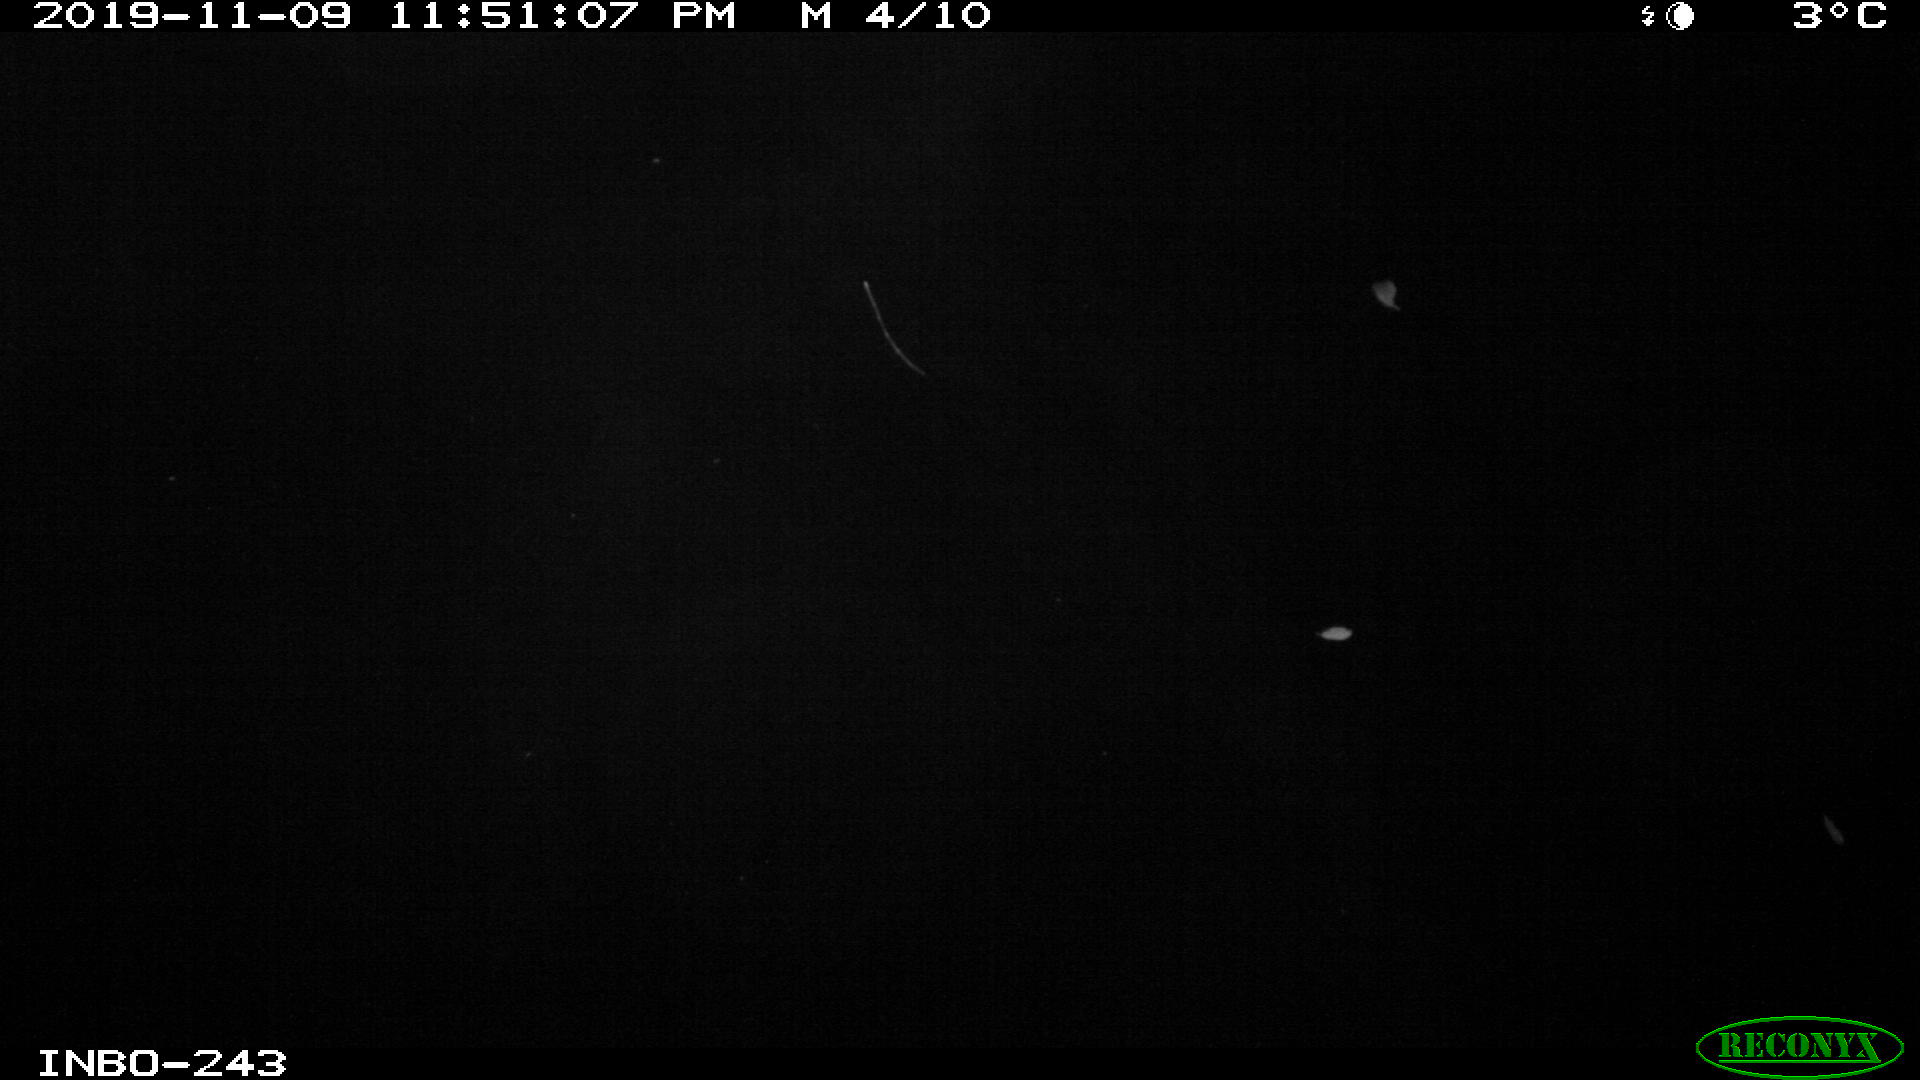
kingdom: Animalia
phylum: Chordata
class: Aves
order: Anseriformes
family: Anatidae
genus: Anas
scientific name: Anas platyrhynchos
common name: Mallard
